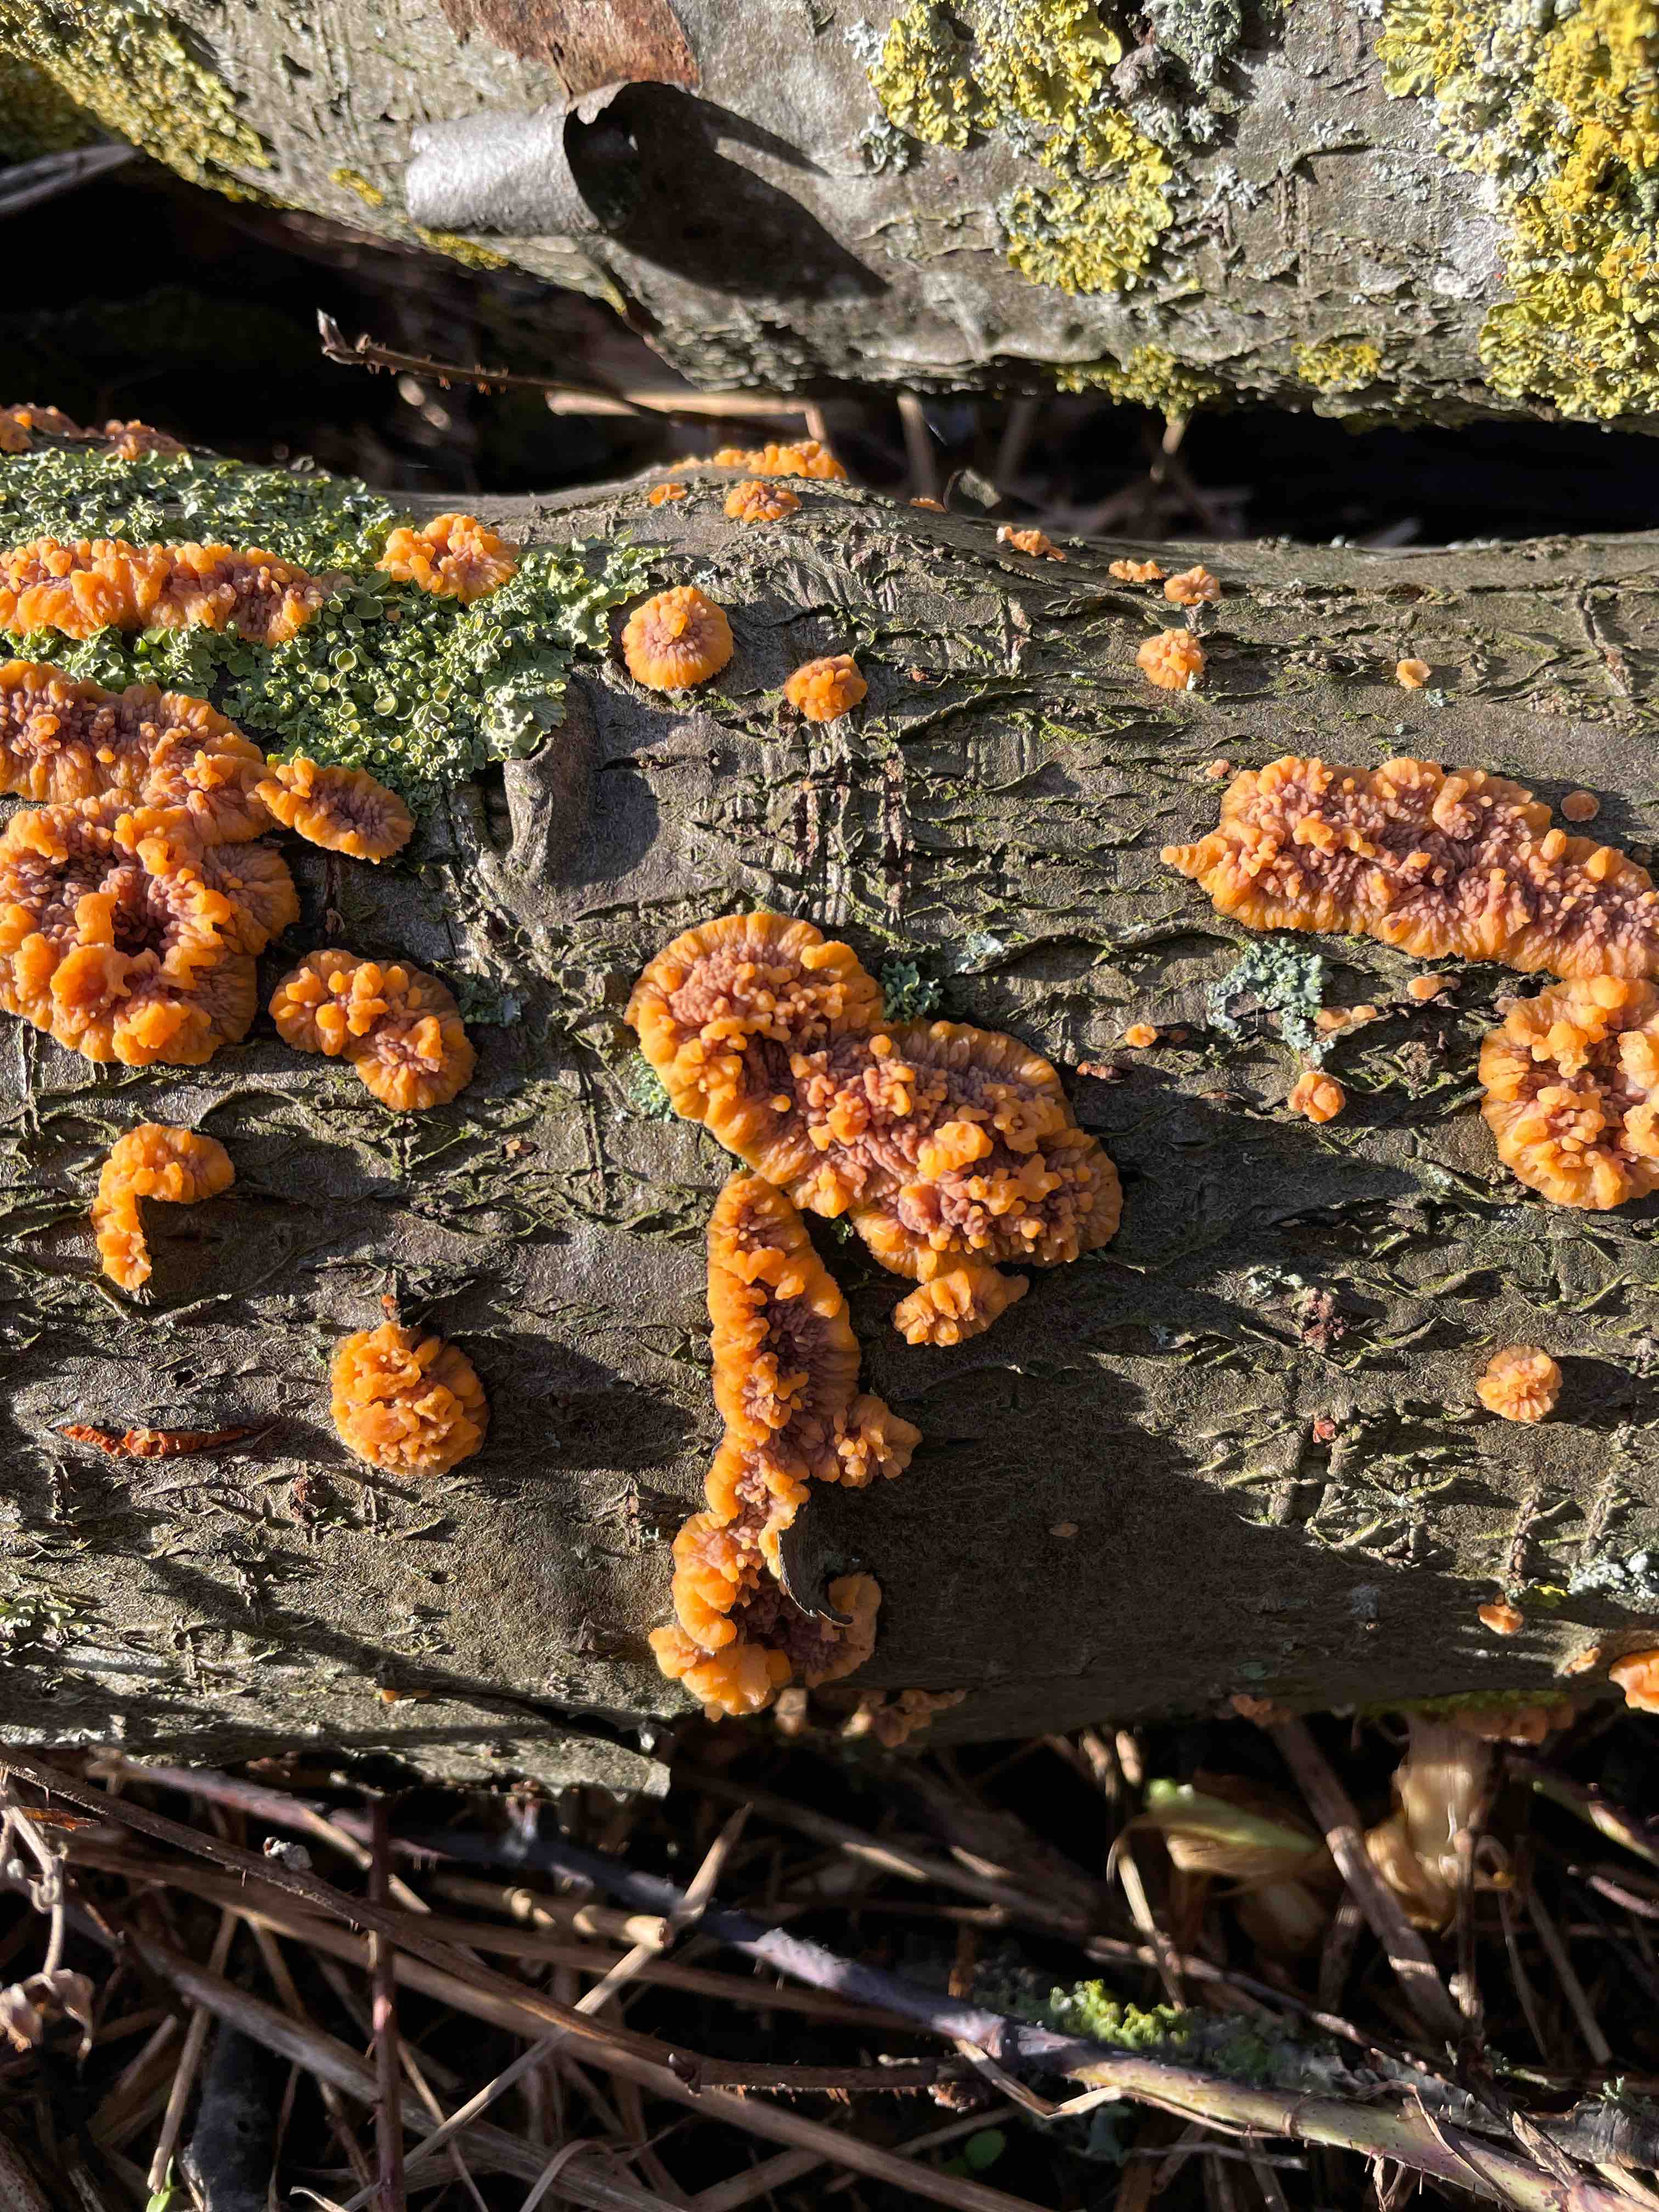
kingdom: Fungi
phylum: Basidiomycota
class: Agaricomycetes
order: Polyporales
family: Meruliaceae
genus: Phlebia
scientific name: Phlebia radiata
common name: stråle-åresvamp
